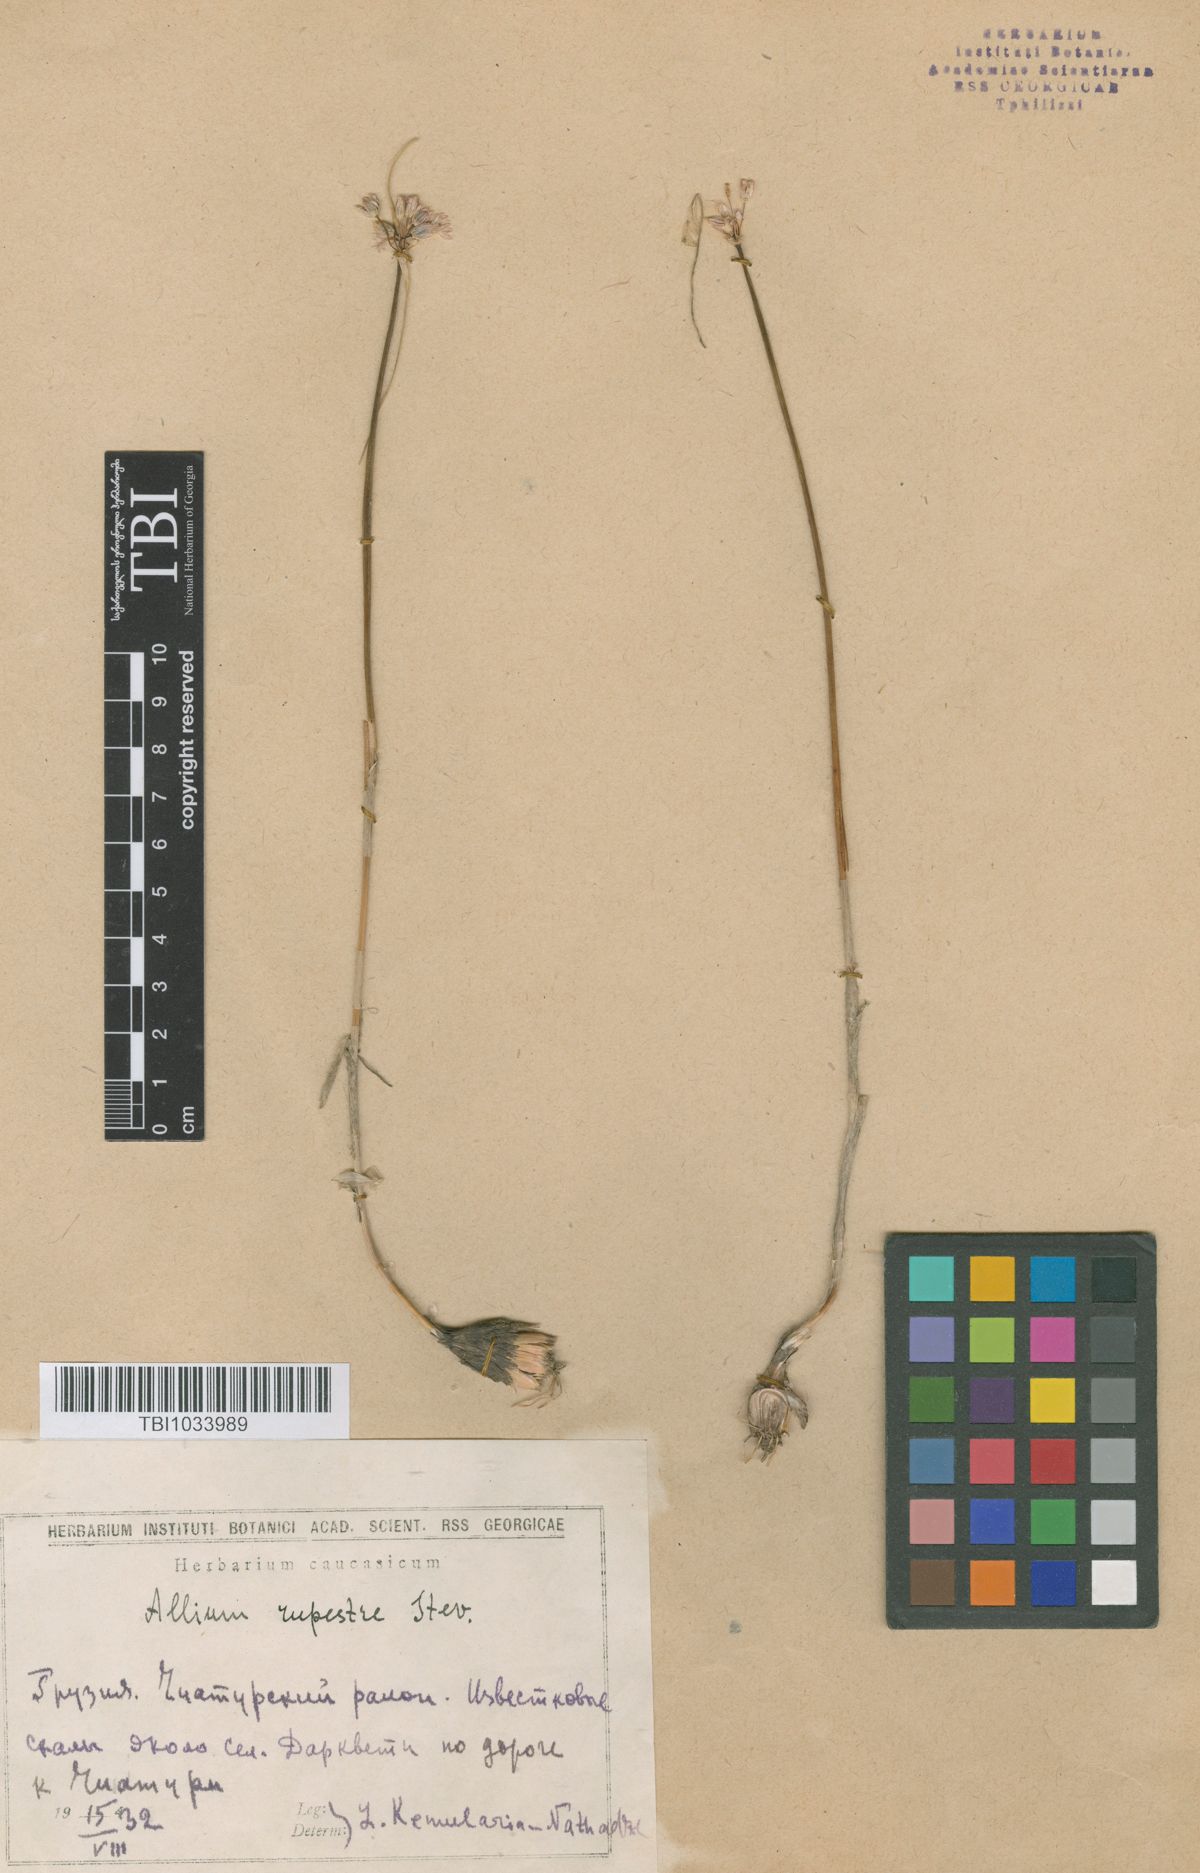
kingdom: Plantae
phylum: Tracheophyta
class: Liliopsida
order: Asparagales
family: Amaryllidaceae
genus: Allium
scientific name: Allium rupestre
